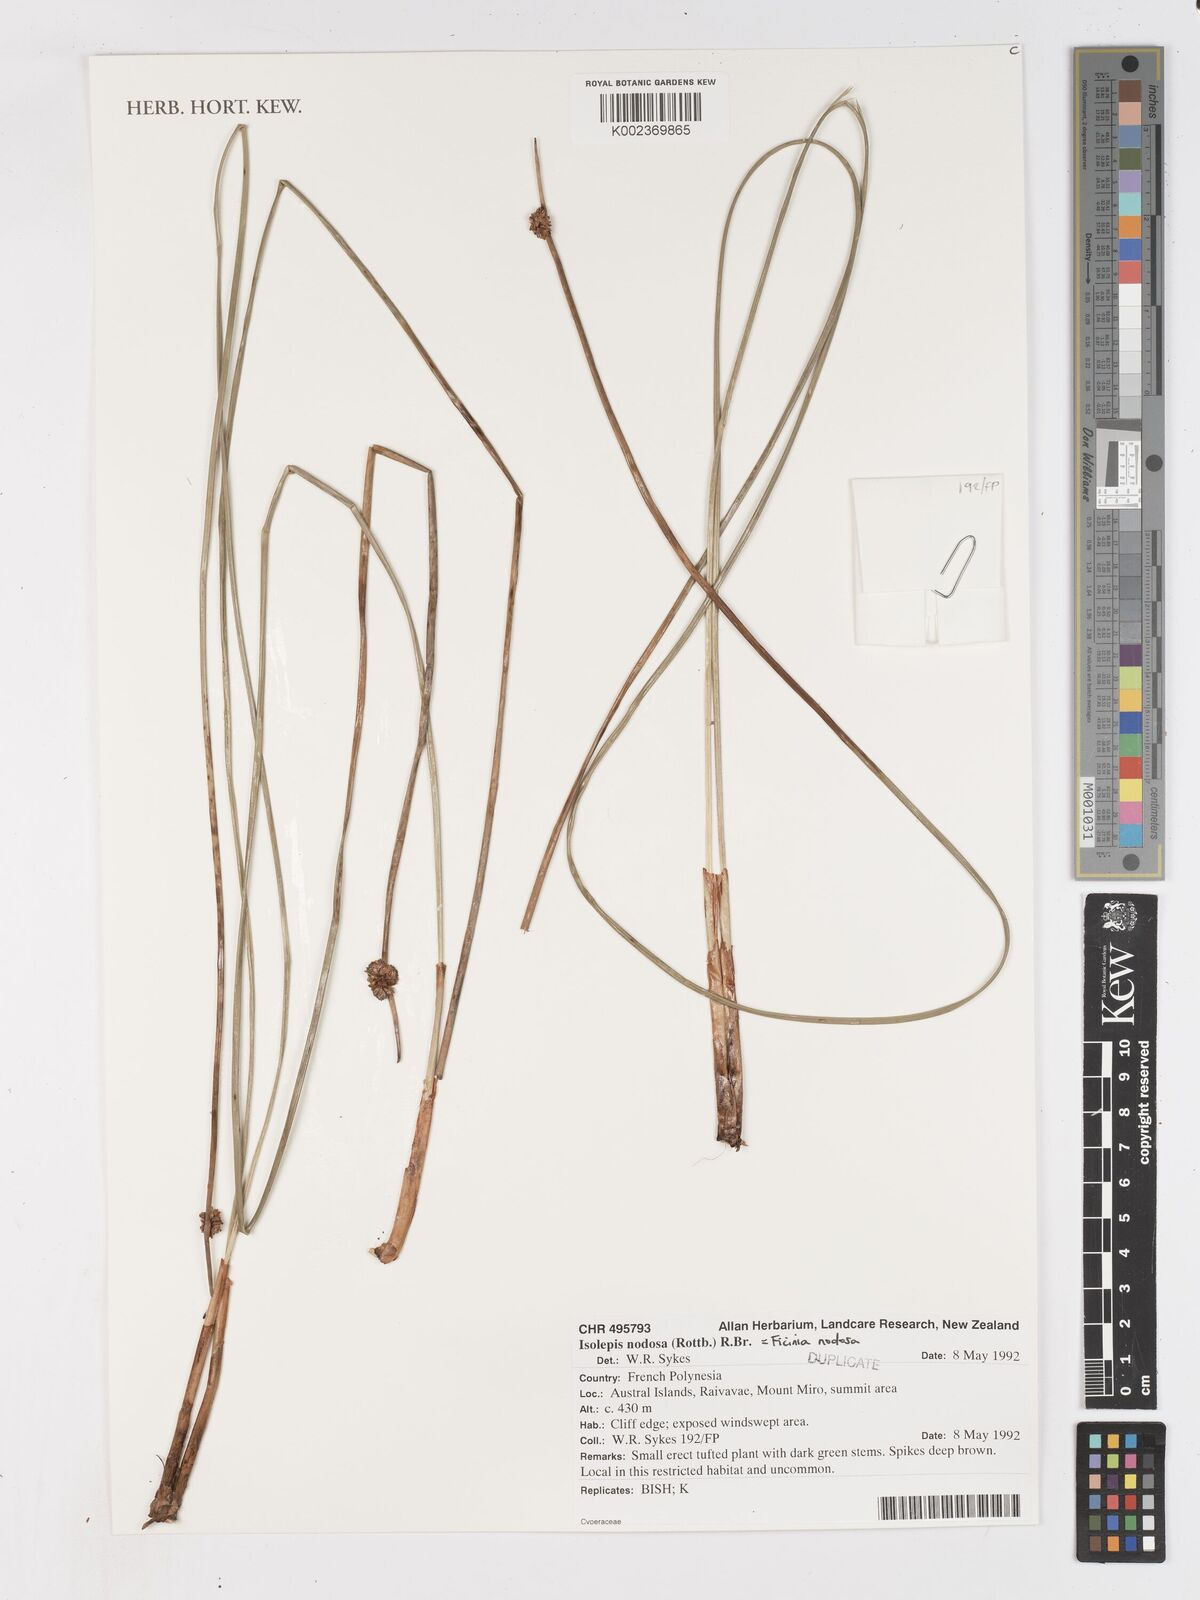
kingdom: Plantae
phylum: Tracheophyta
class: Liliopsida
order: Poales
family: Cyperaceae
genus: Ficinia
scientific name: Ficinia nodosa
